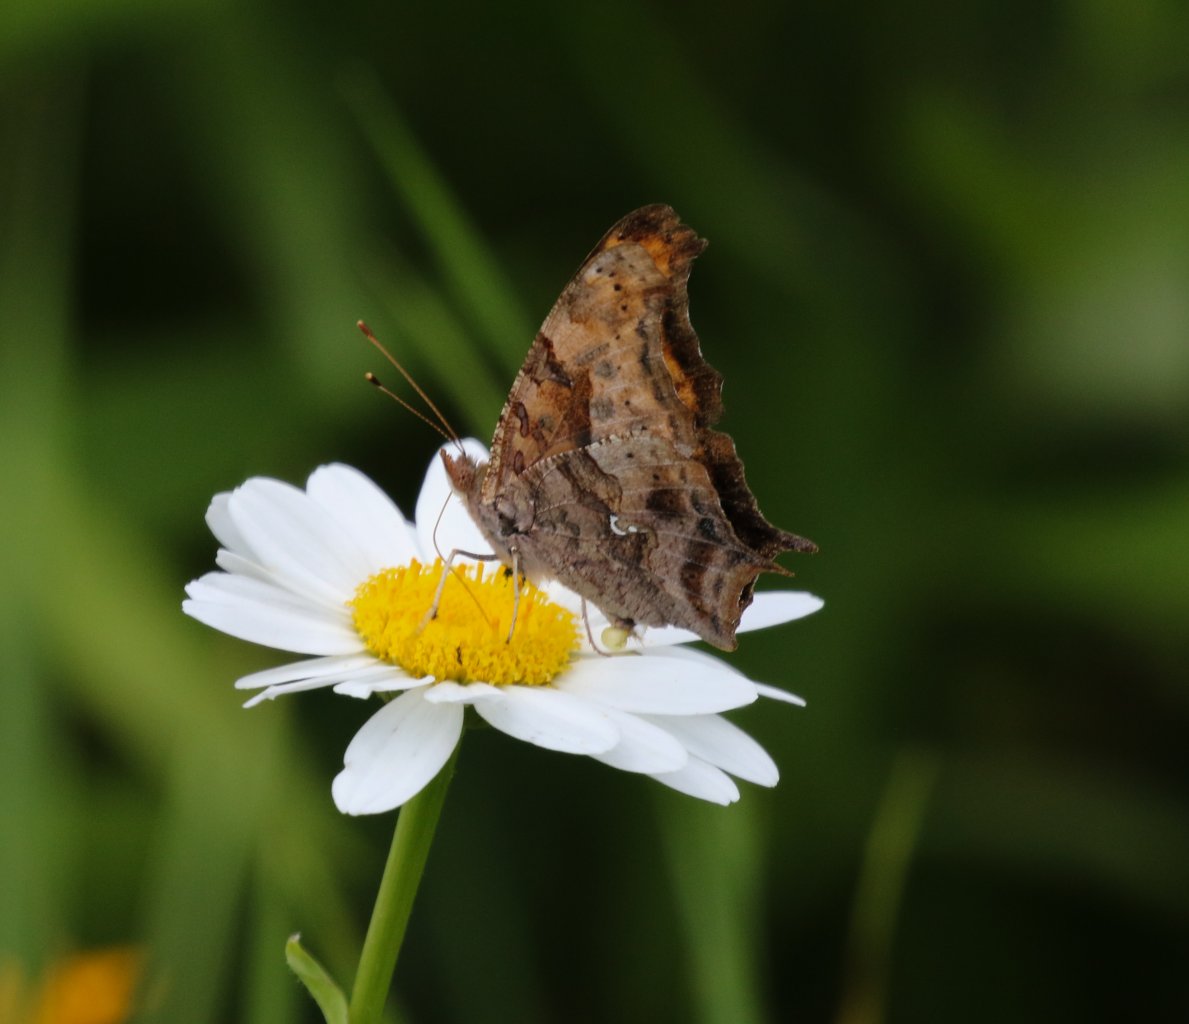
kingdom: Animalia
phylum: Arthropoda
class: Insecta
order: Lepidoptera
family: Nymphalidae
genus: Polygonia
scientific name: Polygonia interrogationis
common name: Question Mark
